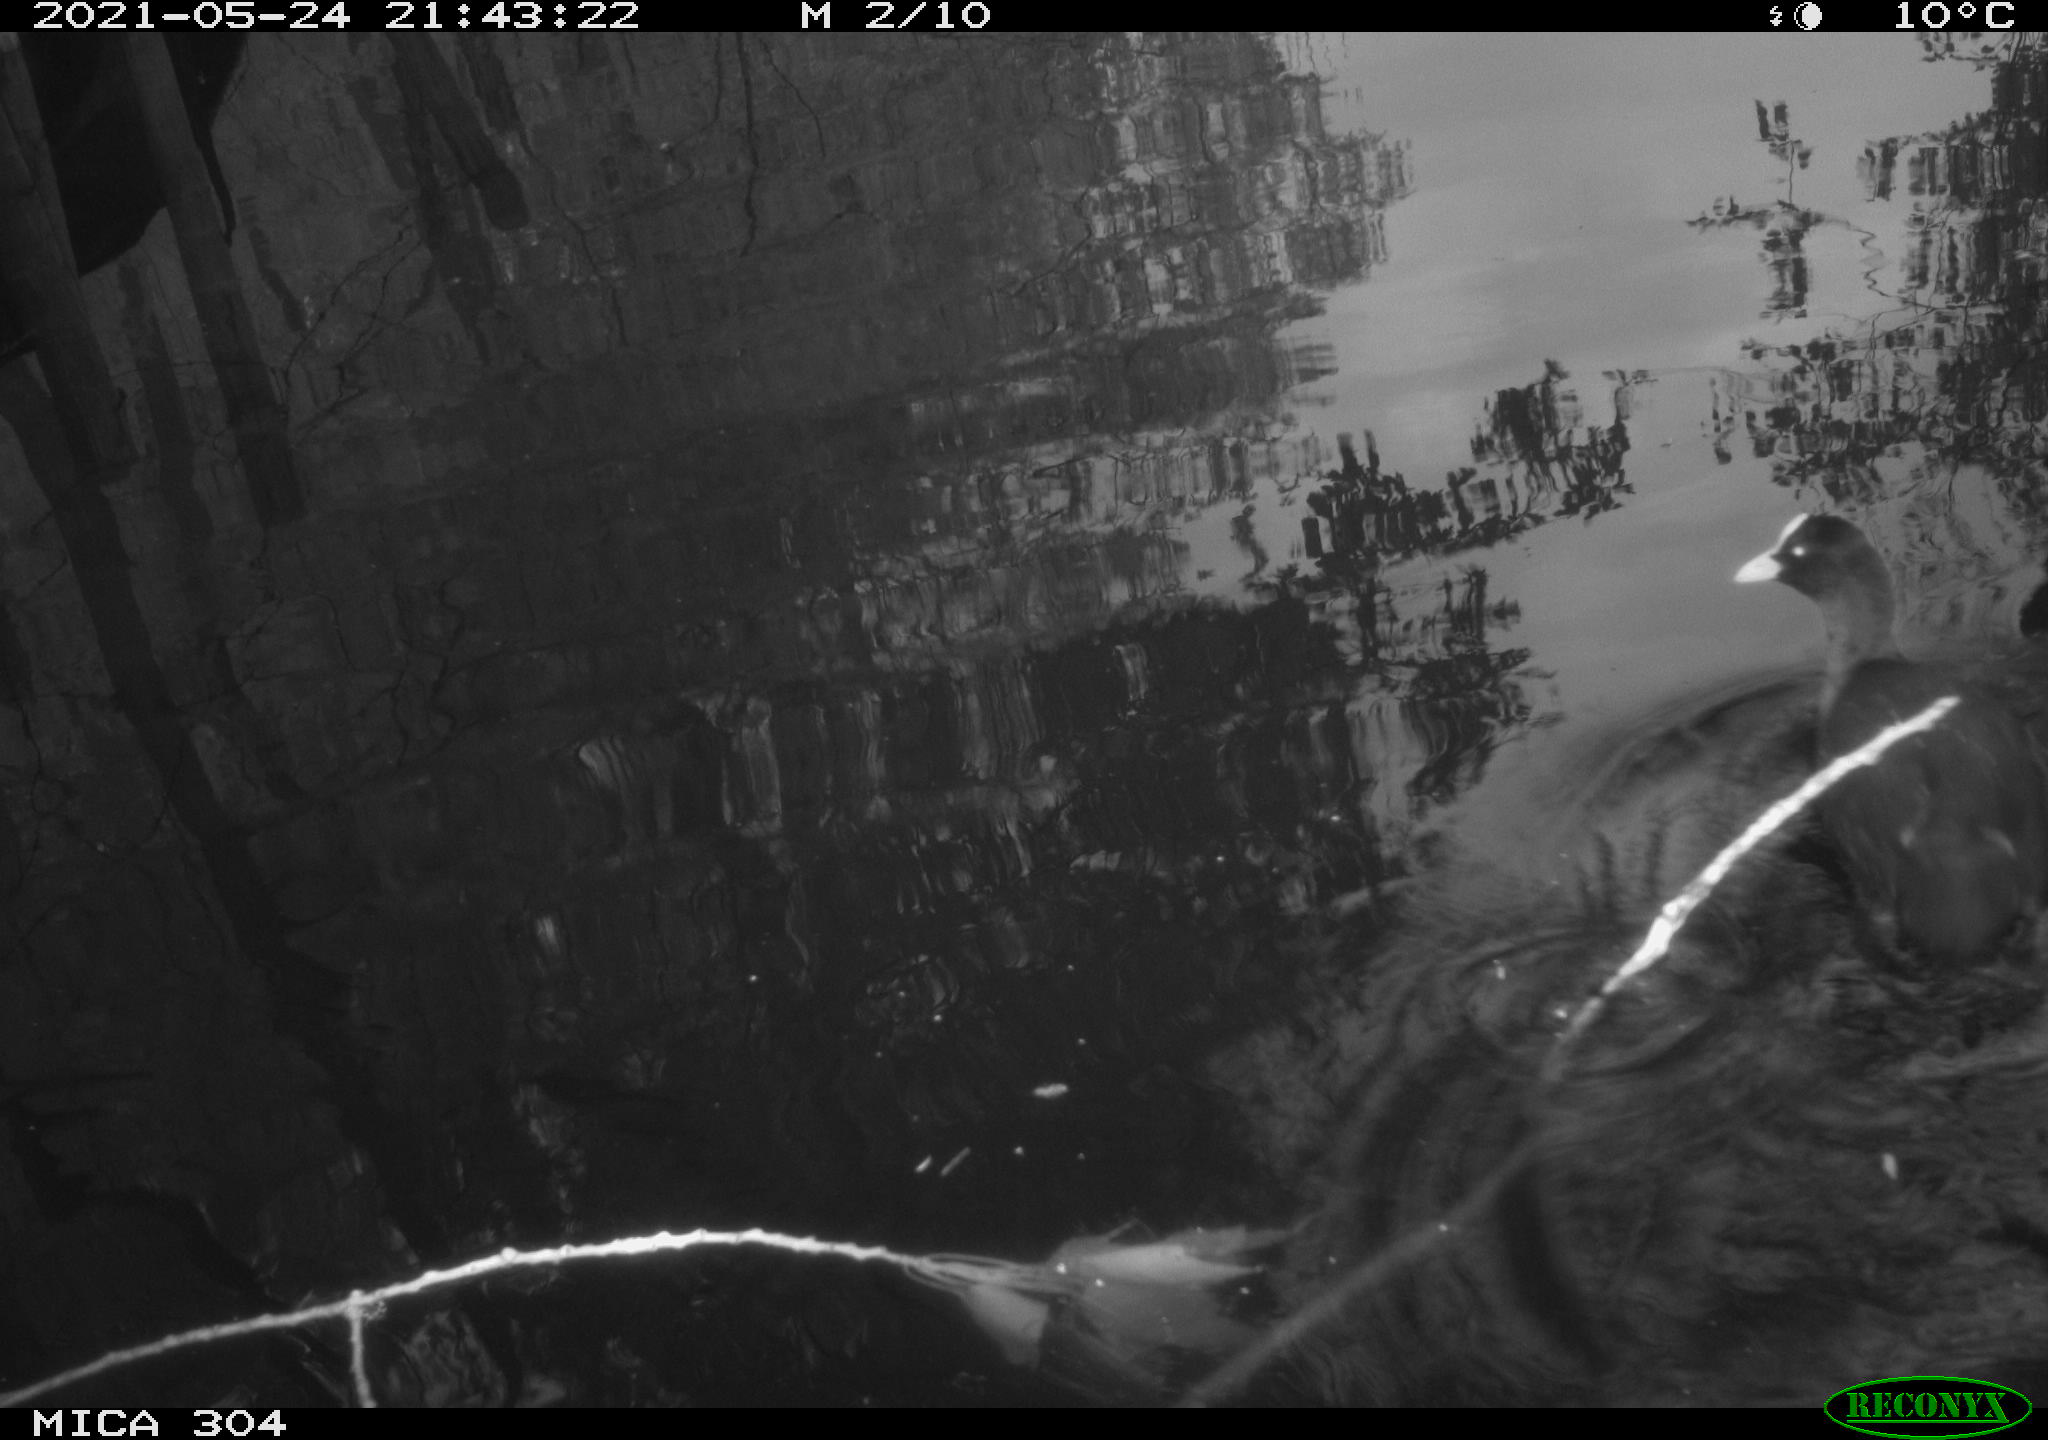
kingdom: Animalia
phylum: Chordata
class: Aves
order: Gruiformes
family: Rallidae
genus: Fulica
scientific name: Fulica atra
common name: Eurasian coot
